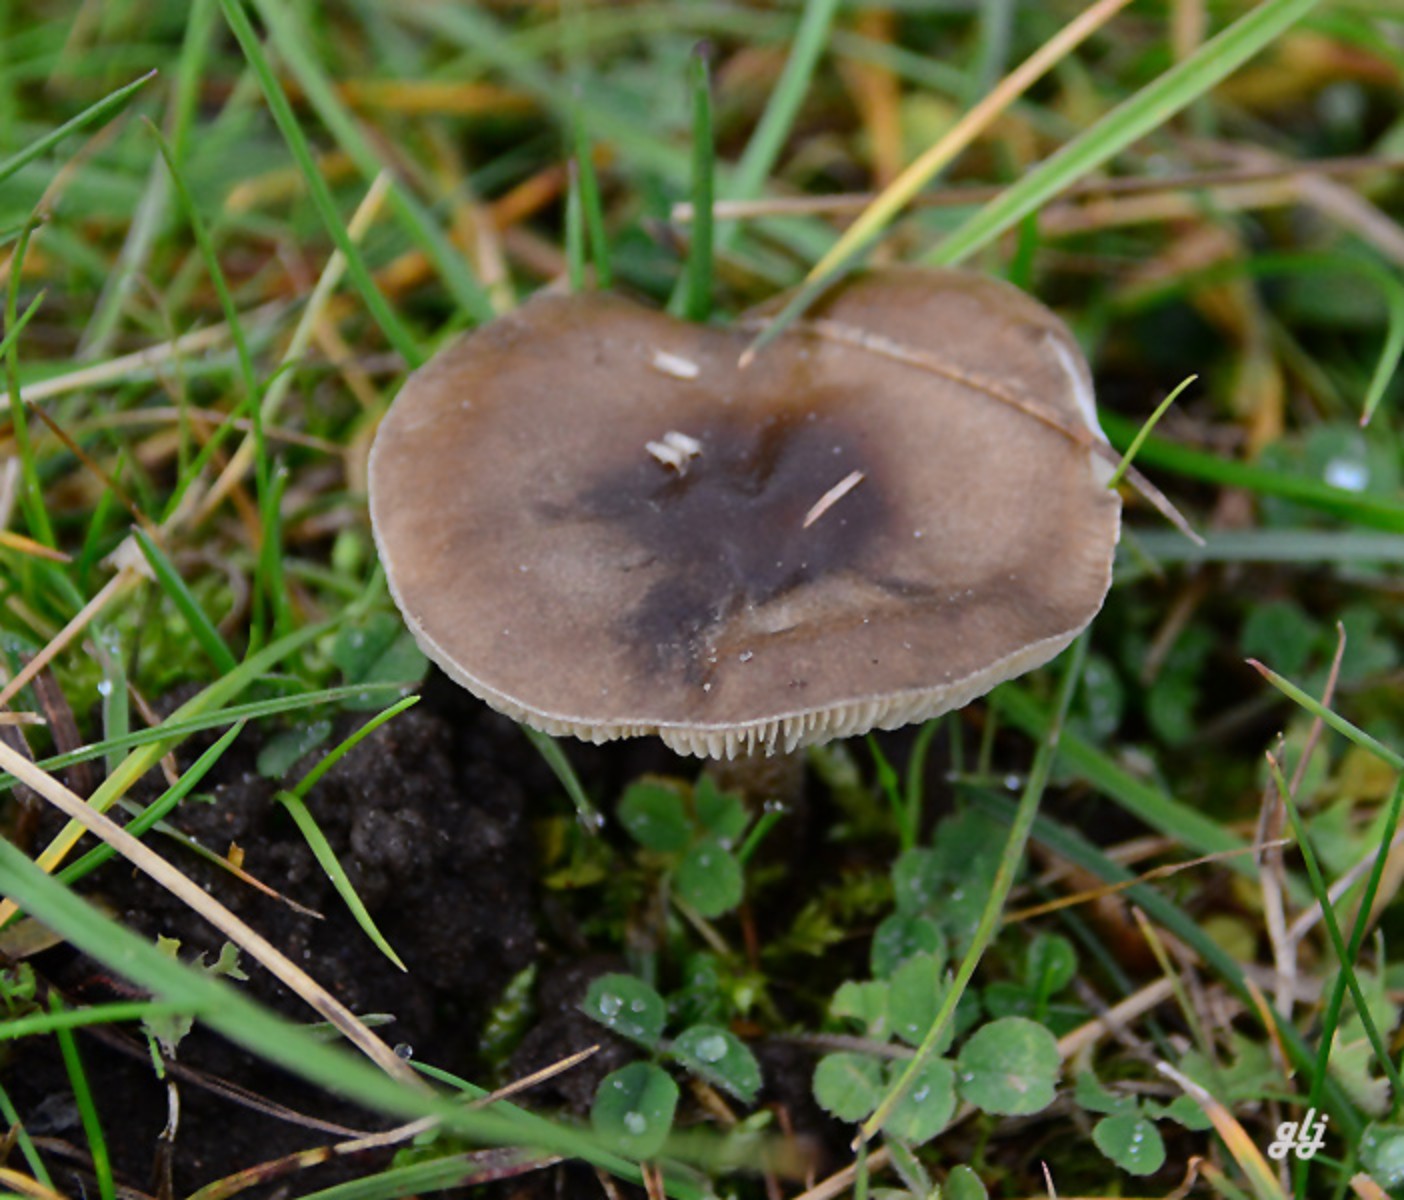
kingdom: Fungi
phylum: Basidiomycota
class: Agaricomycetes
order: Agaricales
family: Tricholomataceae
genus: Melanoleuca
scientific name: Melanoleuca polioleuca
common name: hvidbladet munkehat
